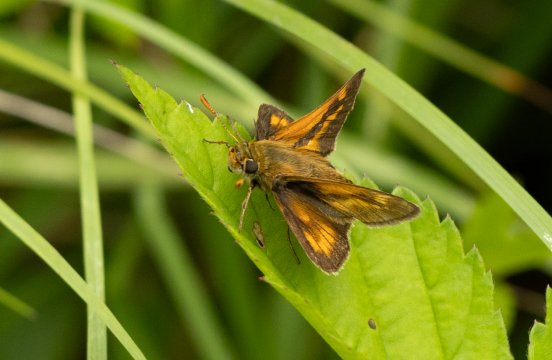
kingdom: Animalia
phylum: Arthropoda
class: Insecta
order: Lepidoptera
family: Hesperiidae
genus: Polites
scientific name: Polites
